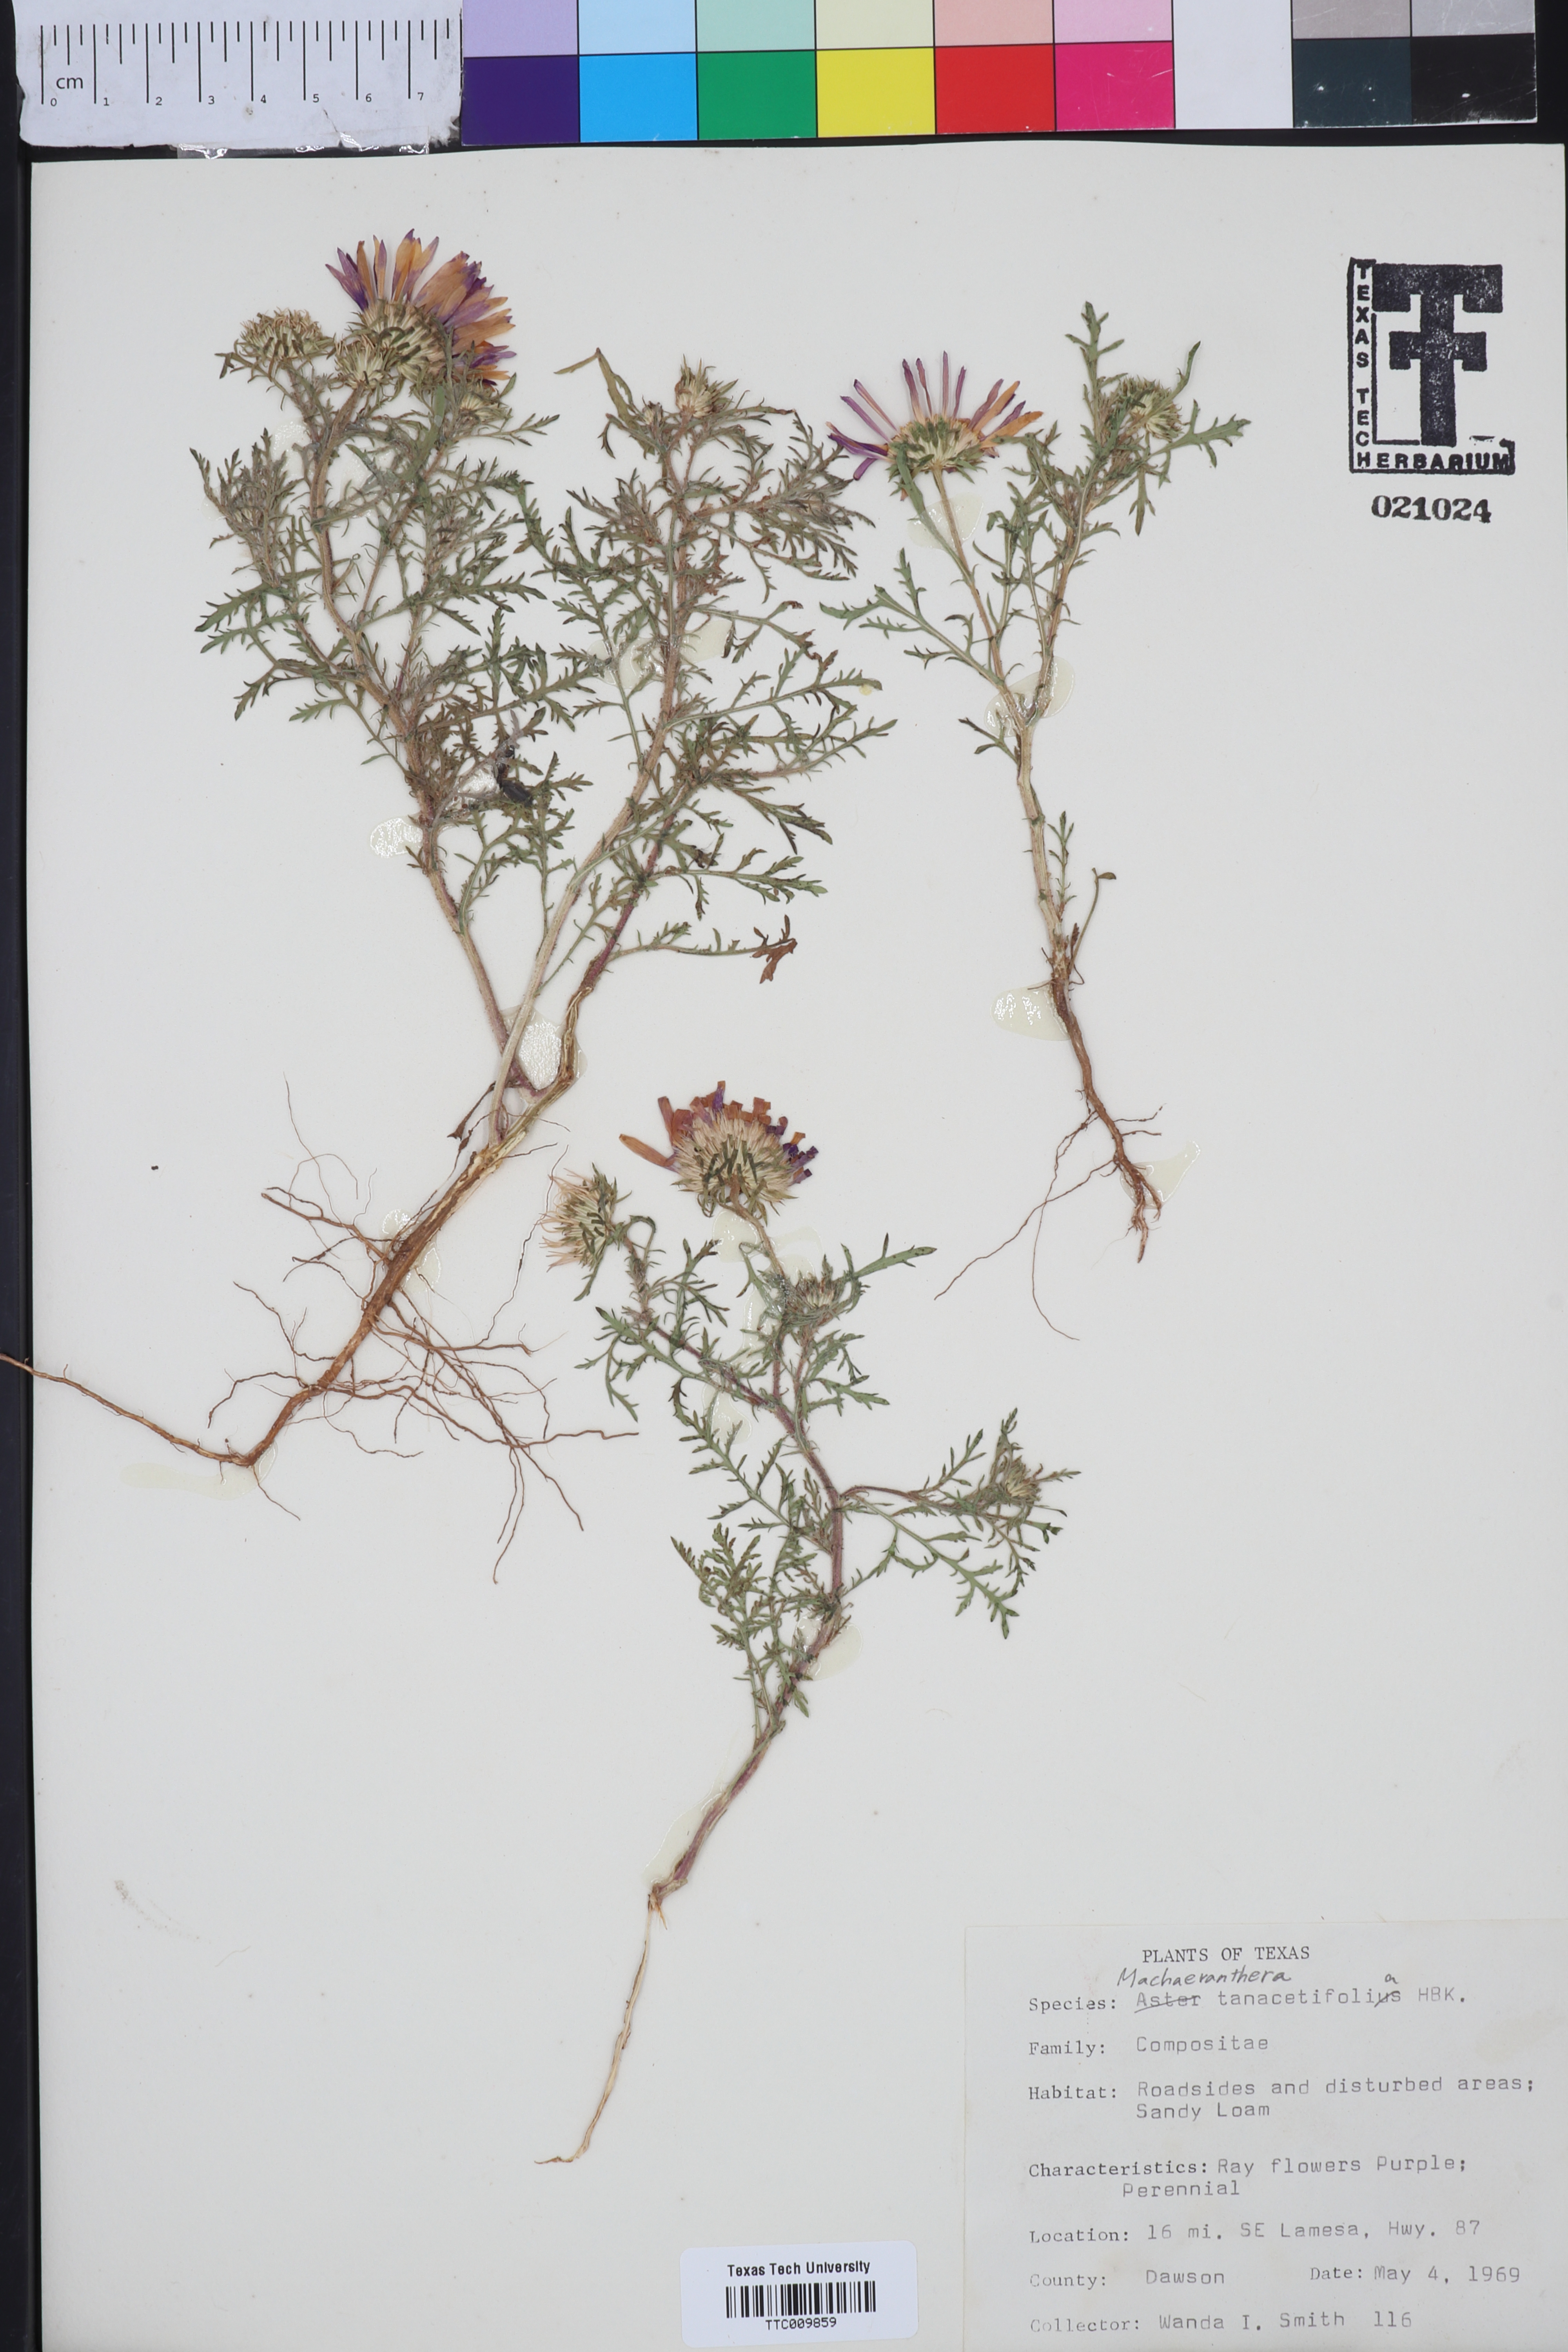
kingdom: Plantae
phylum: Tracheophyta
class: Magnoliopsida
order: Asterales
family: Asteraceae
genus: Machaeranthera
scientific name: Machaeranthera tanacetifolia
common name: Tansy-aster
